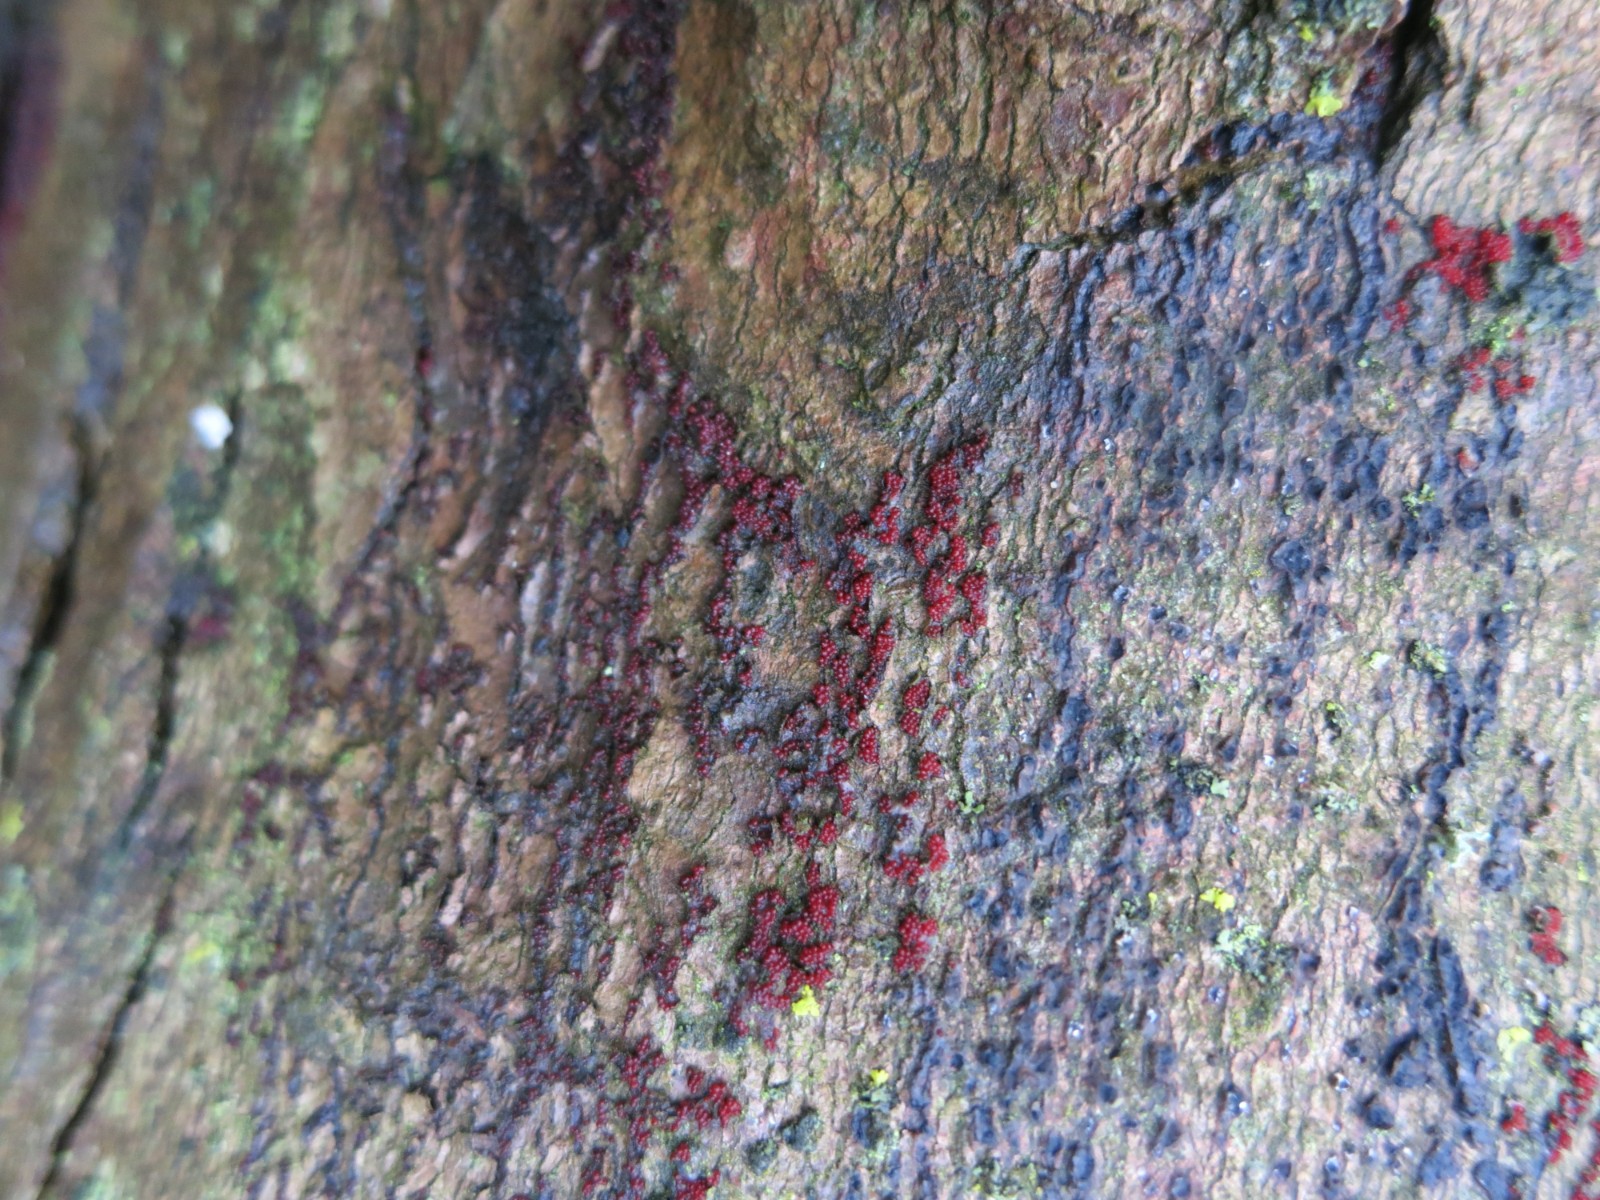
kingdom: Fungi
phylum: Ascomycota
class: Sordariomycetes
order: Hypocreales
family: Nectriaceae
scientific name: Nectriaceae
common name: cinnobersvampfamilien
